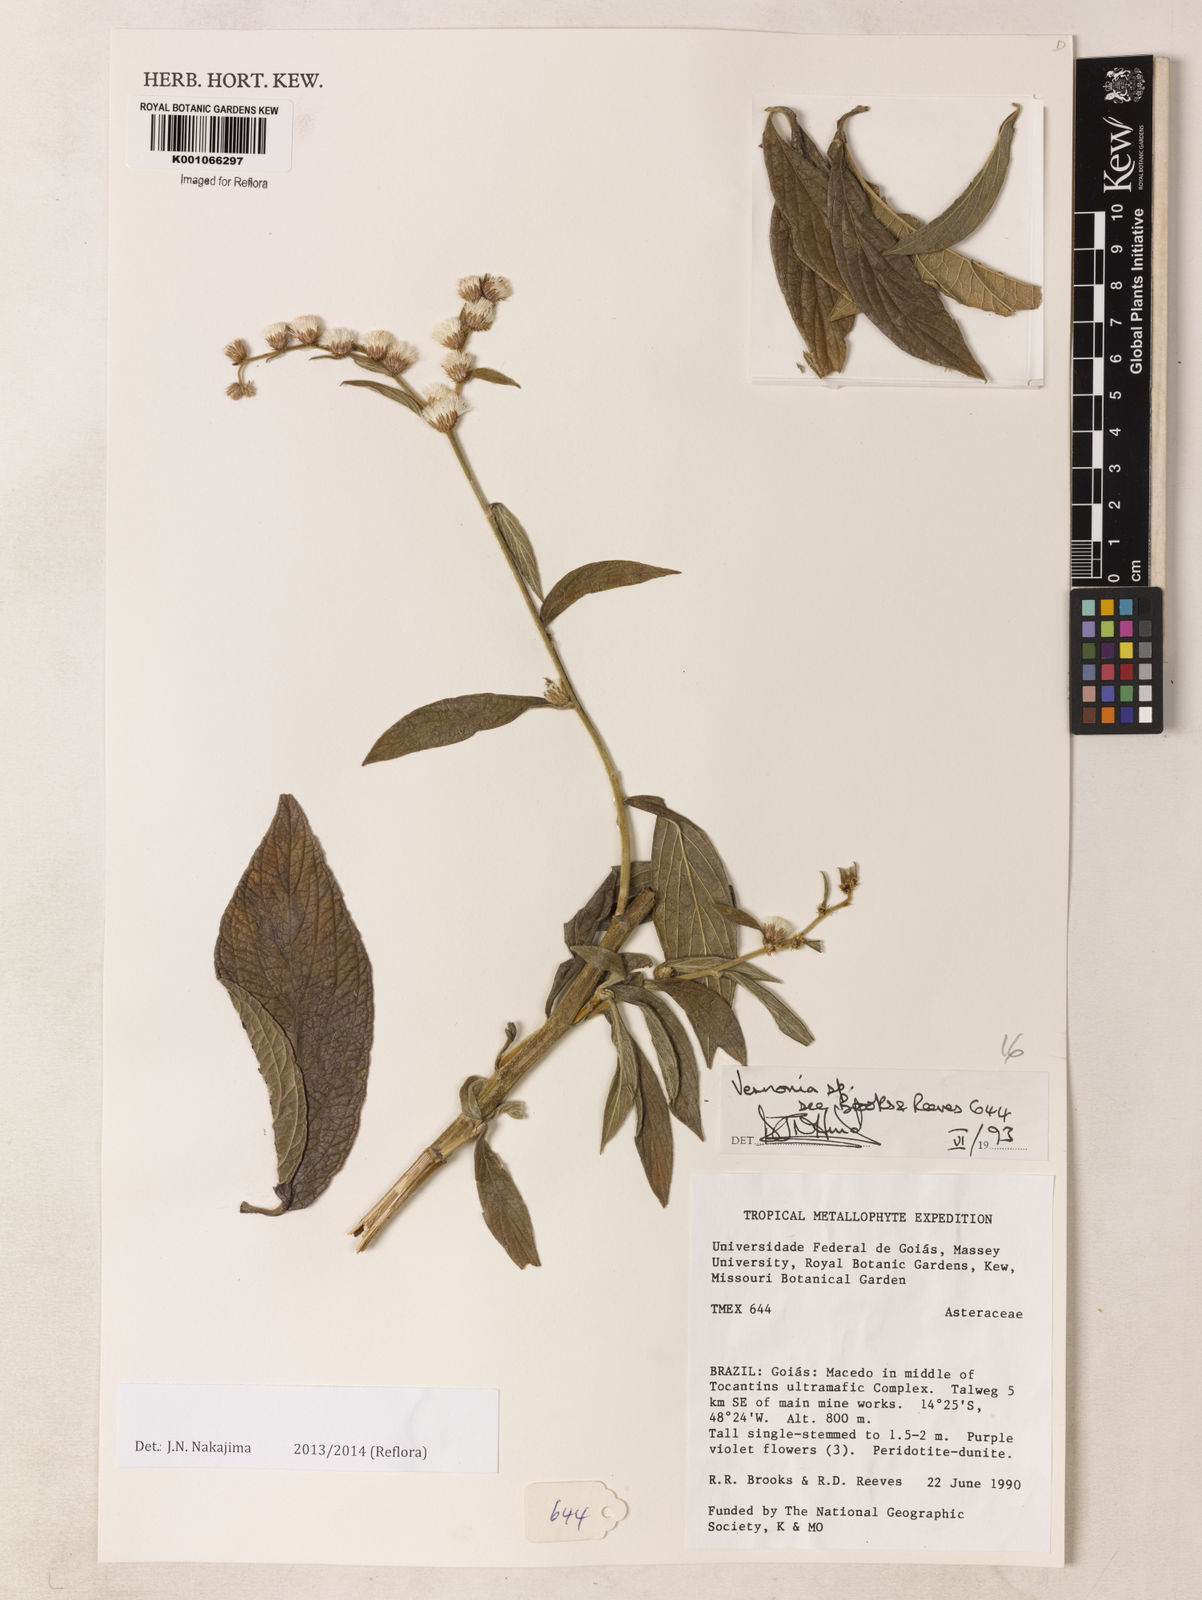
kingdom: Plantae
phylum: Tracheophyta
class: Magnoliopsida
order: Asterales
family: Asteraceae
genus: Vernonia
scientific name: Vernonia
